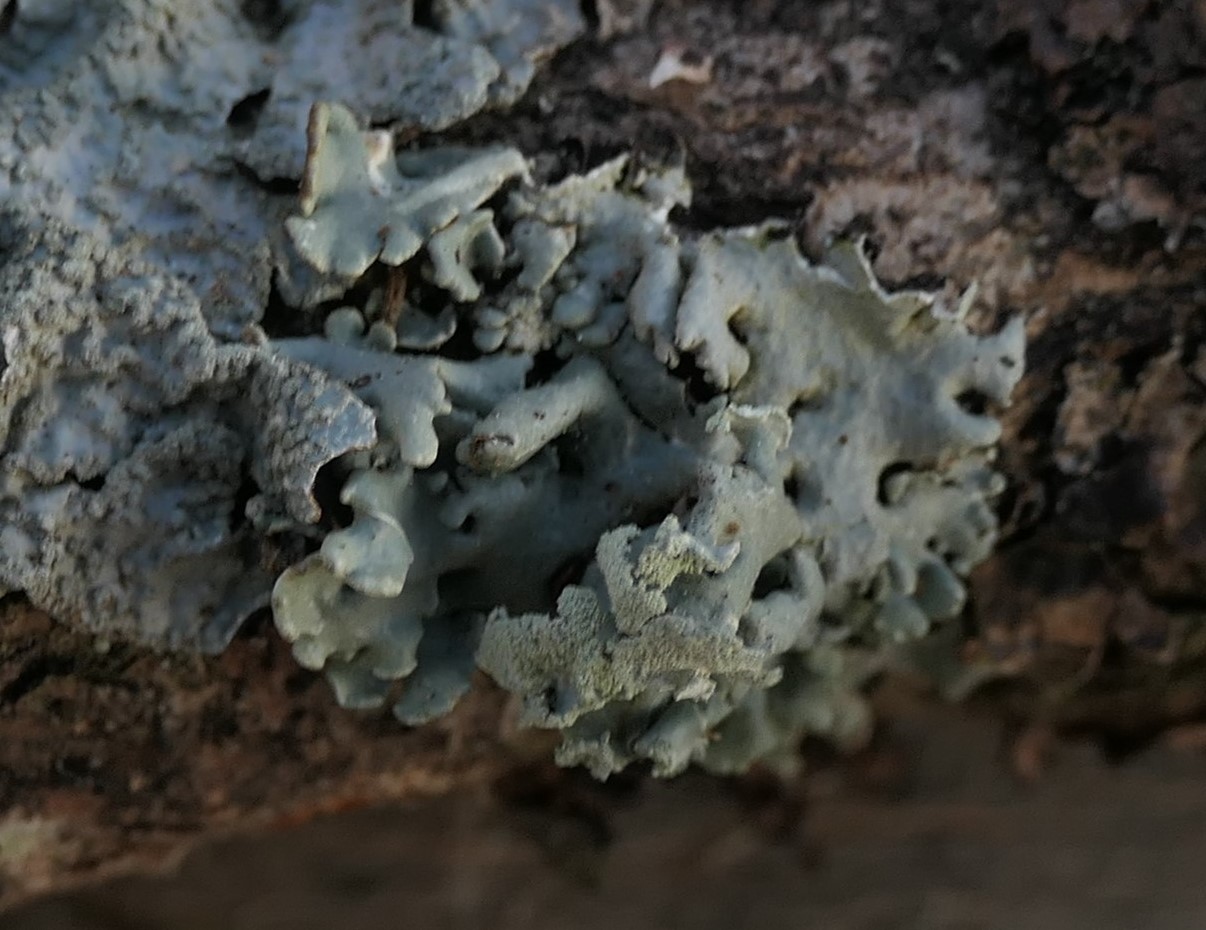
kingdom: Fungi
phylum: Ascomycota
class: Lecanoromycetes
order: Lecanorales
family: Parmeliaceae
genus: Hypogymnia
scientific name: Hypogymnia physodes
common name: almindelig kvistlav
